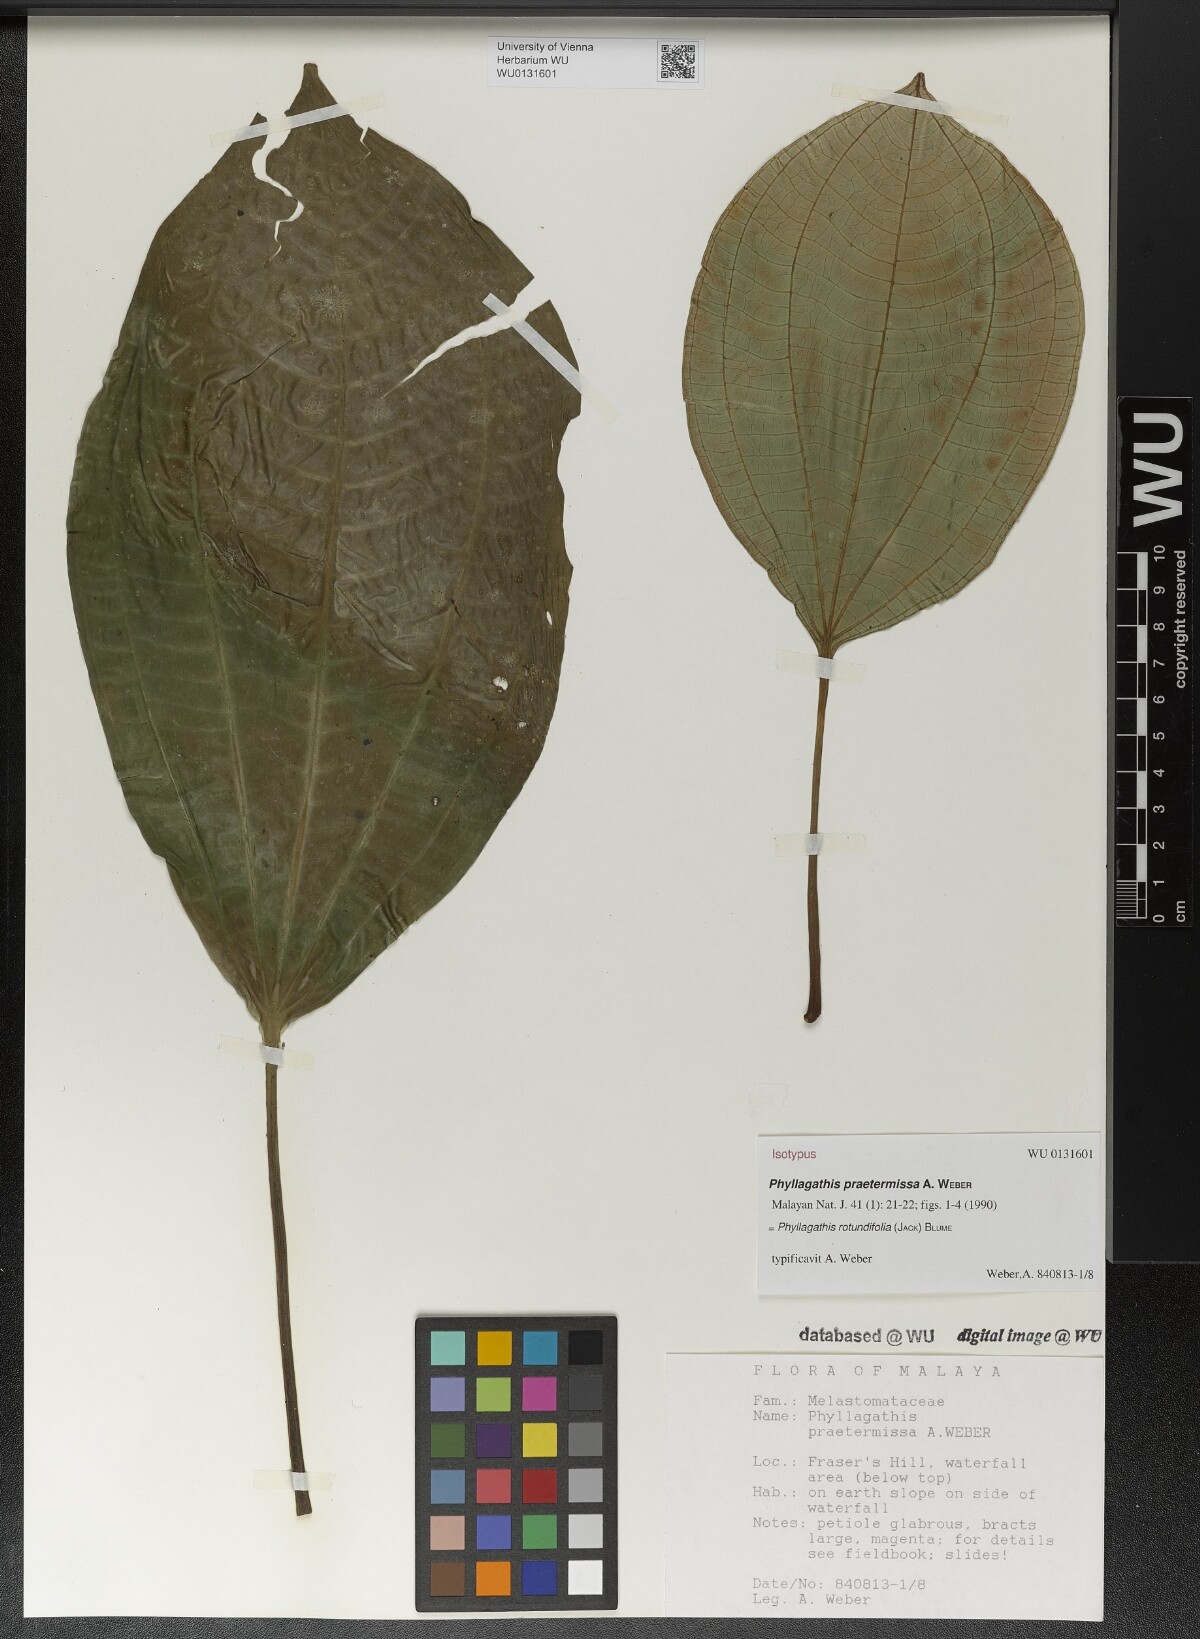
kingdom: Plantae
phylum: Tracheophyta
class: Magnoliopsida
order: Myrtales
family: Melastomataceae
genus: Phyllagathis
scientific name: Phyllagathis rotundifolia
